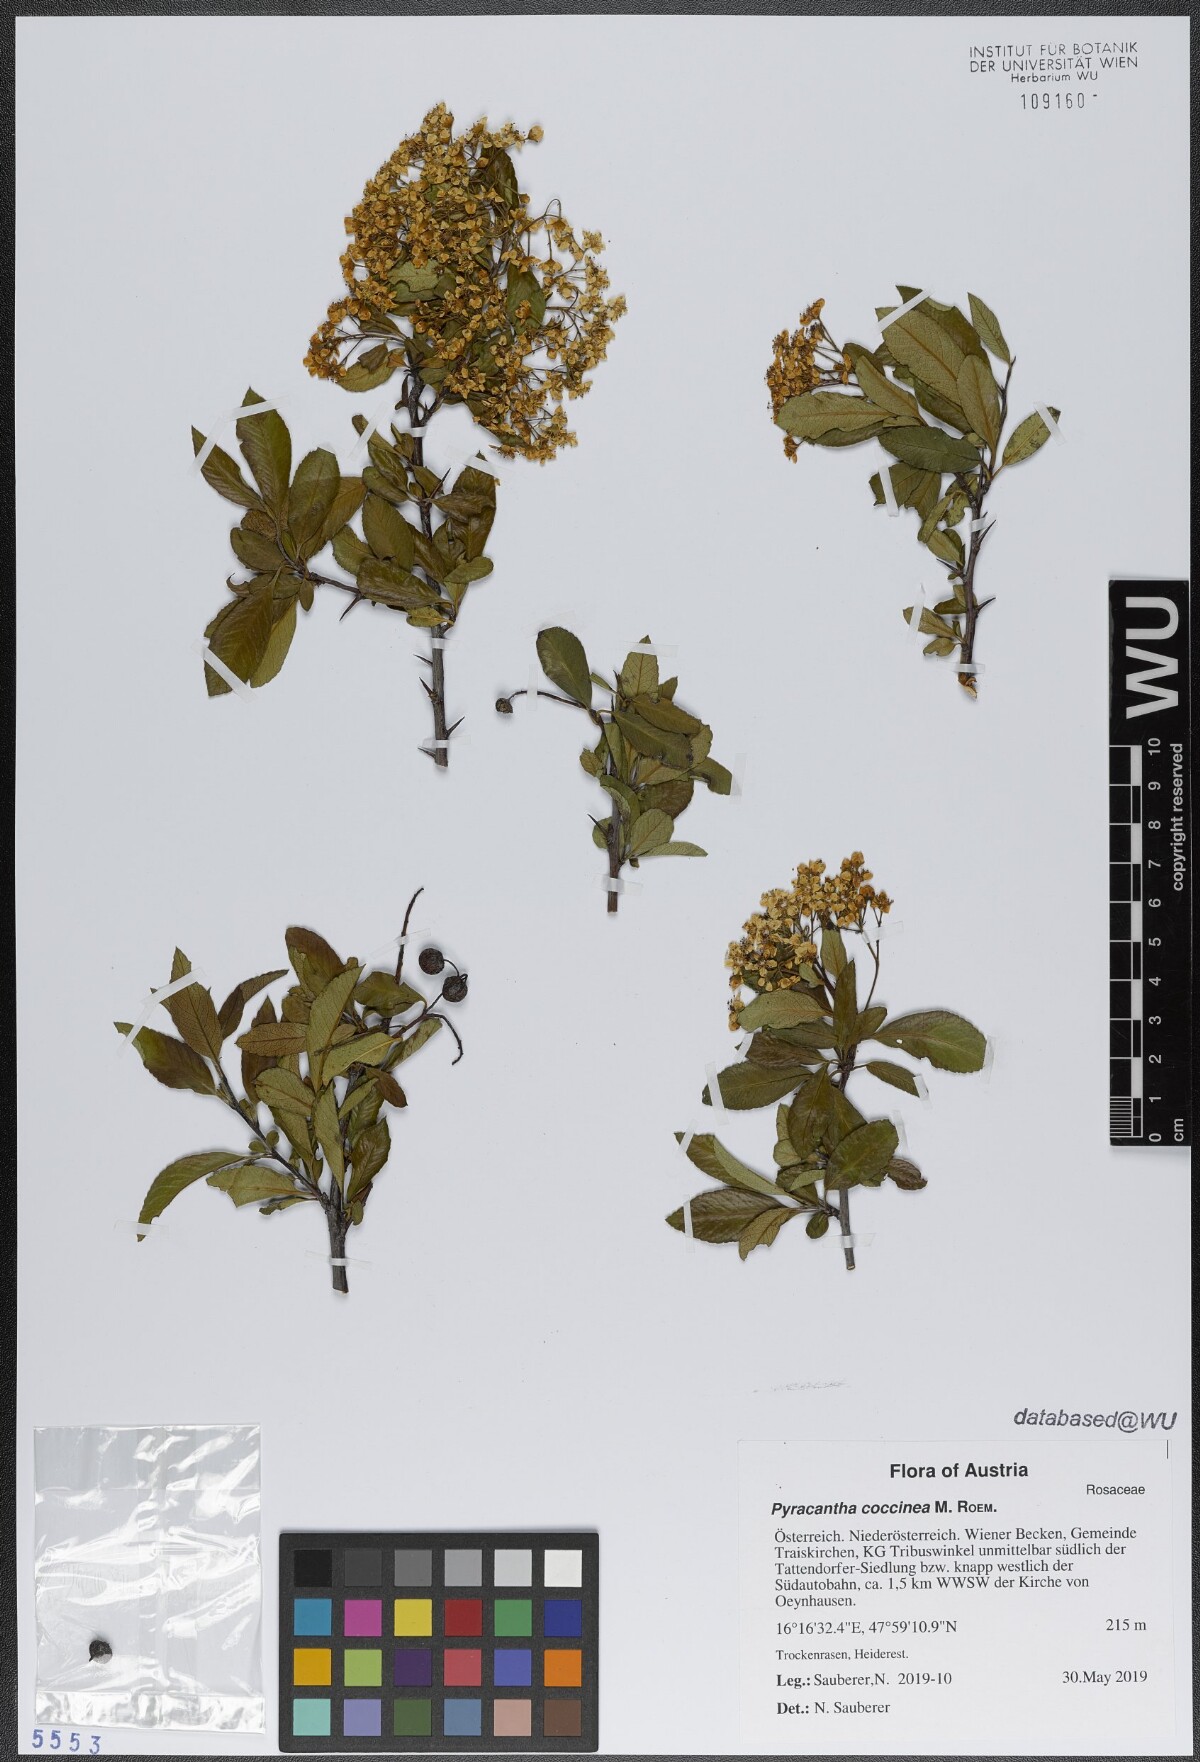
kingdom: Plantae
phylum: Tracheophyta
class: Magnoliopsida
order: Rosales
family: Rosaceae
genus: Pyracantha
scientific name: Pyracantha coccinea
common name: Firethorn
